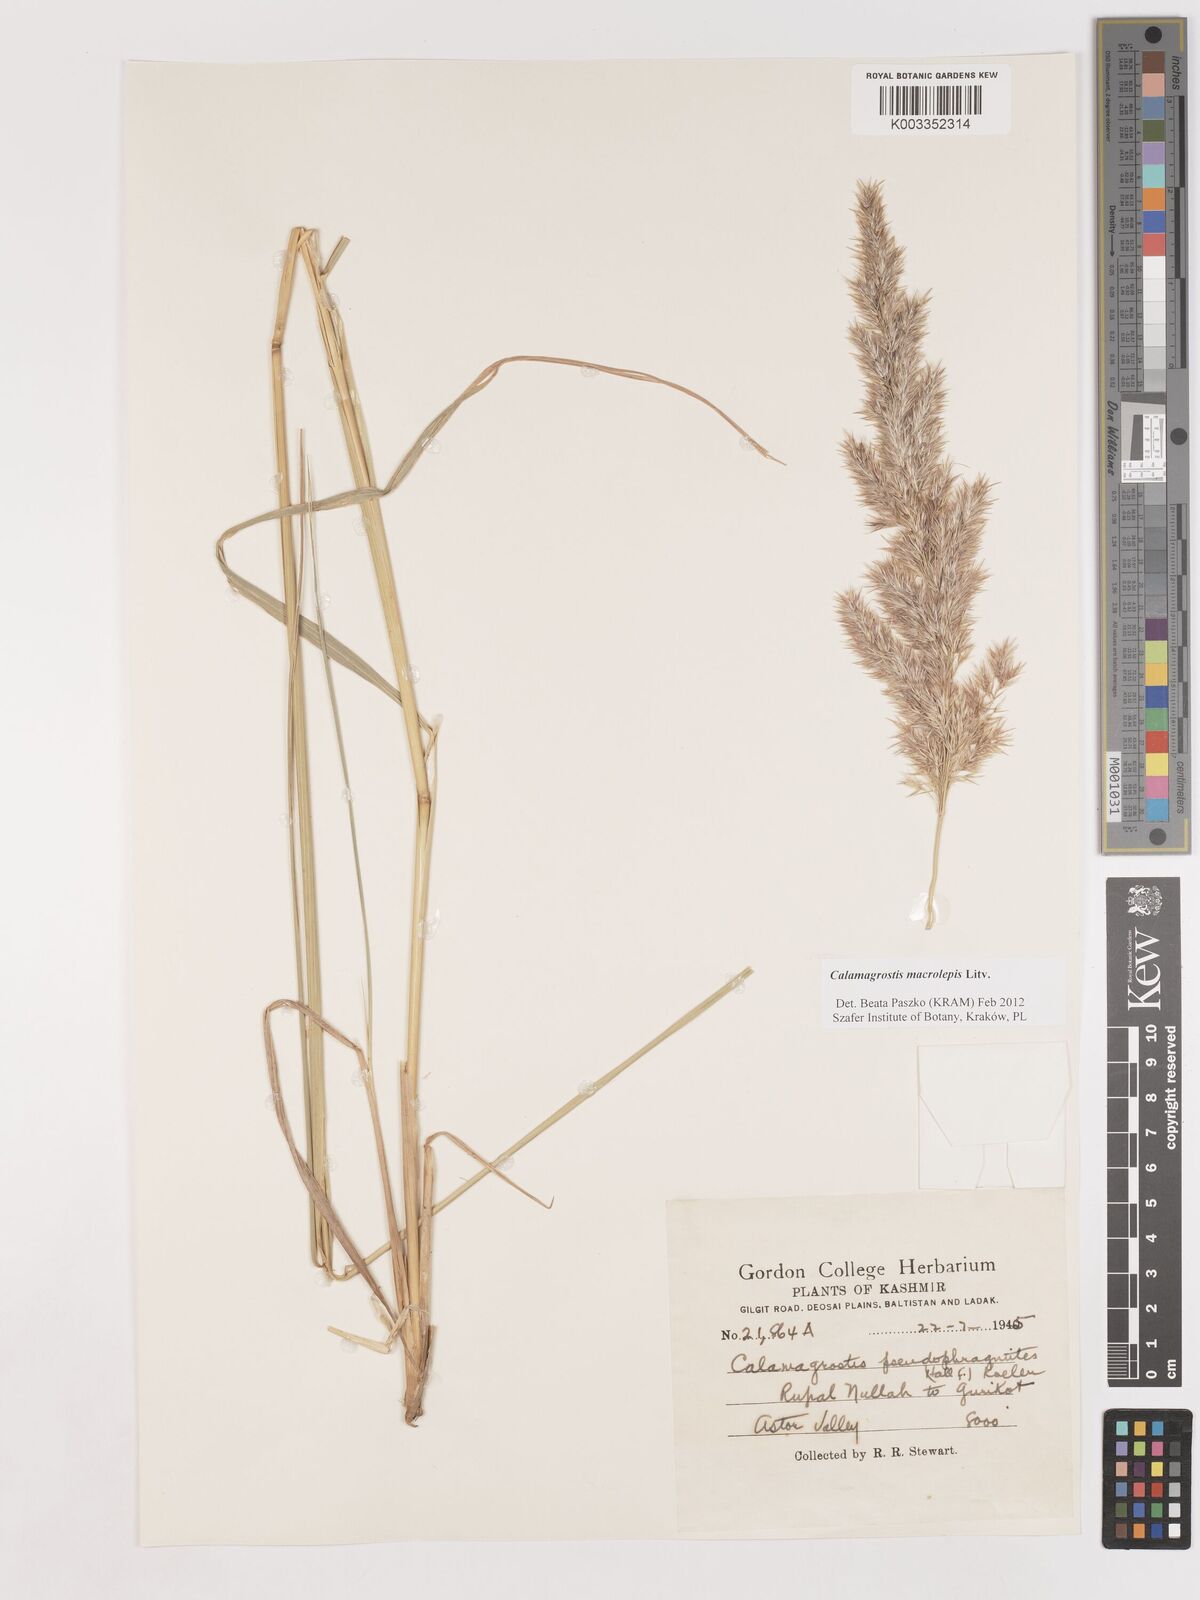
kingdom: Plantae
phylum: Tracheophyta
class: Liliopsida
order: Poales
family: Poaceae
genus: Calamagrostis
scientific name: Calamagrostis epigejos
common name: Wood small-reed
